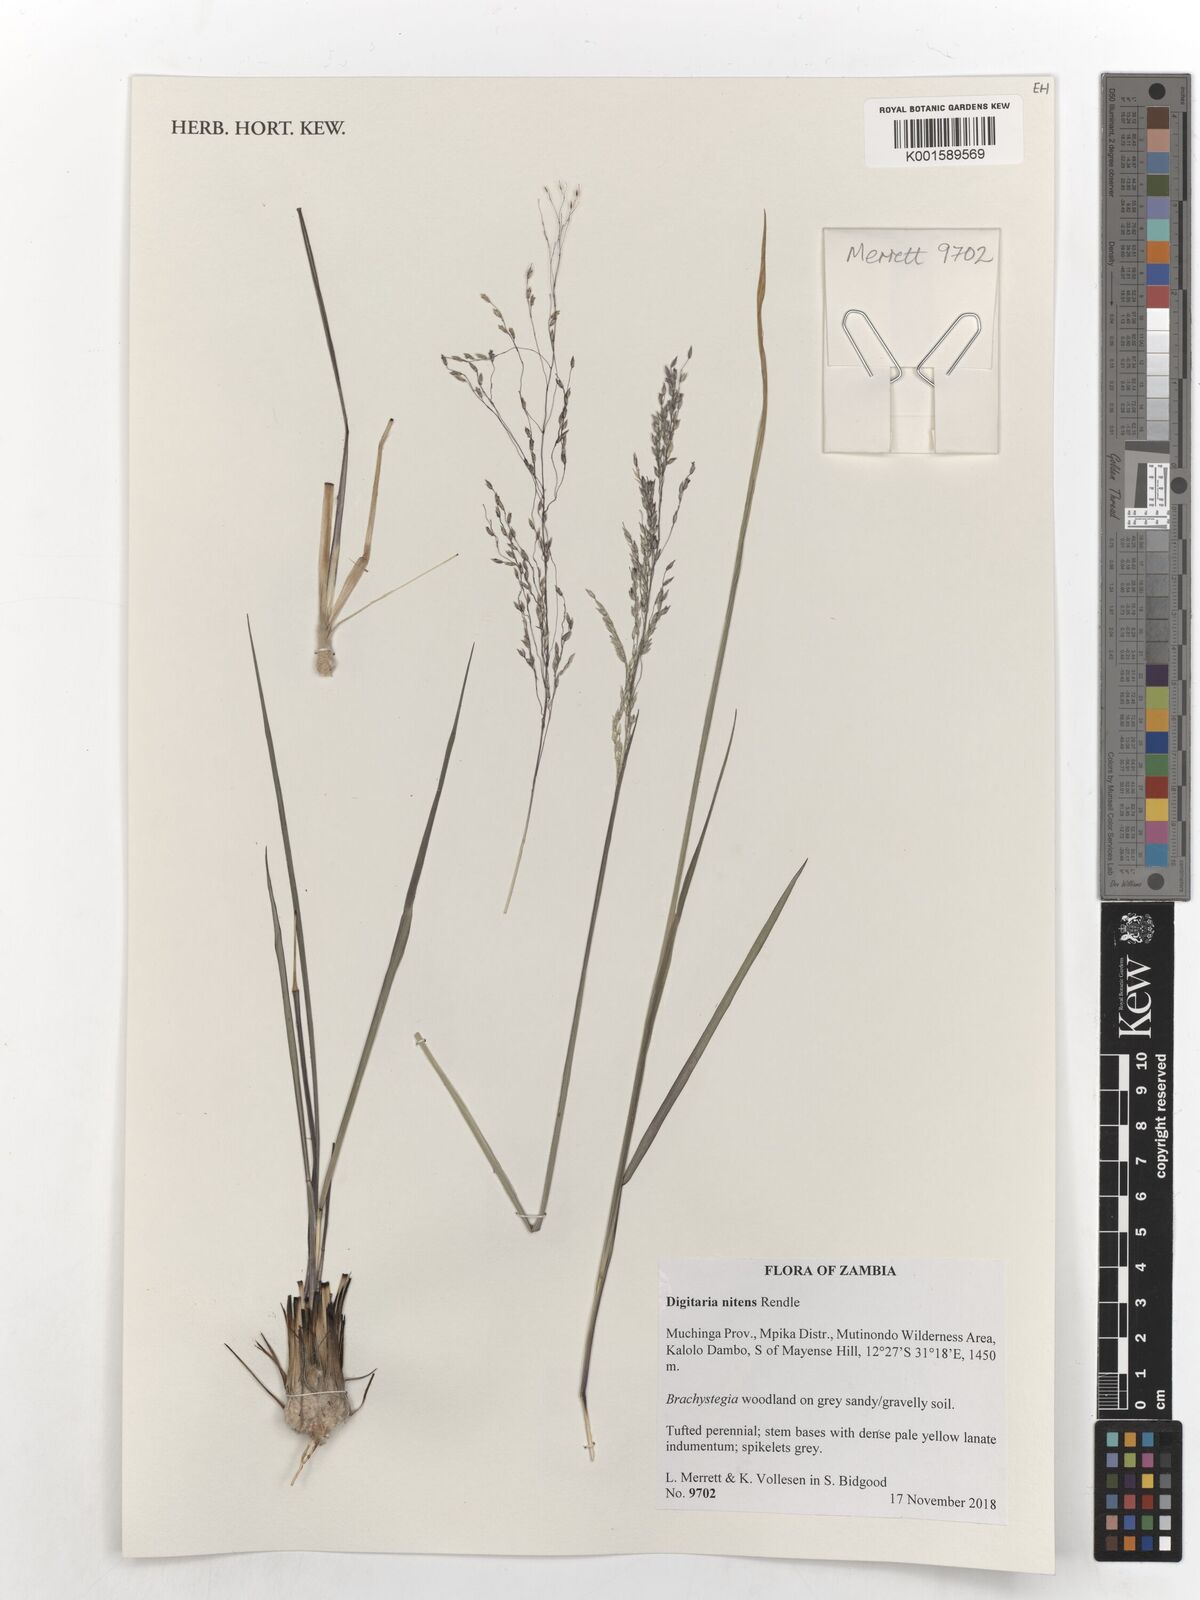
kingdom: Plantae
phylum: Tracheophyta
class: Liliopsida
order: Poales
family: Poaceae
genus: Digitaria
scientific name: Digitaria flaccida
